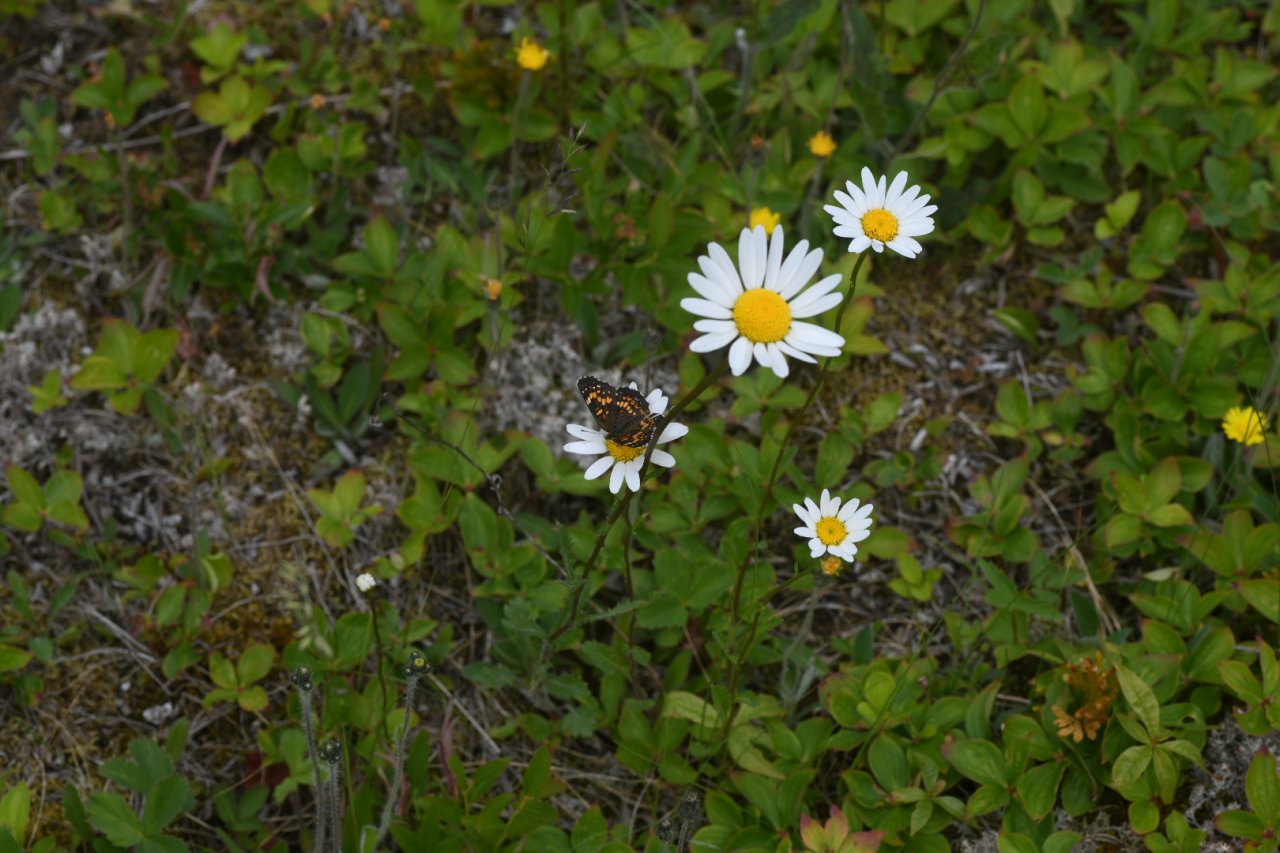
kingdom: Animalia
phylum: Arthropoda
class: Insecta
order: Lepidoptera
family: Nymphalidae
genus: Chlosyne
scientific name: Chlosyne harrisii
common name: Harris's Checkerspot
